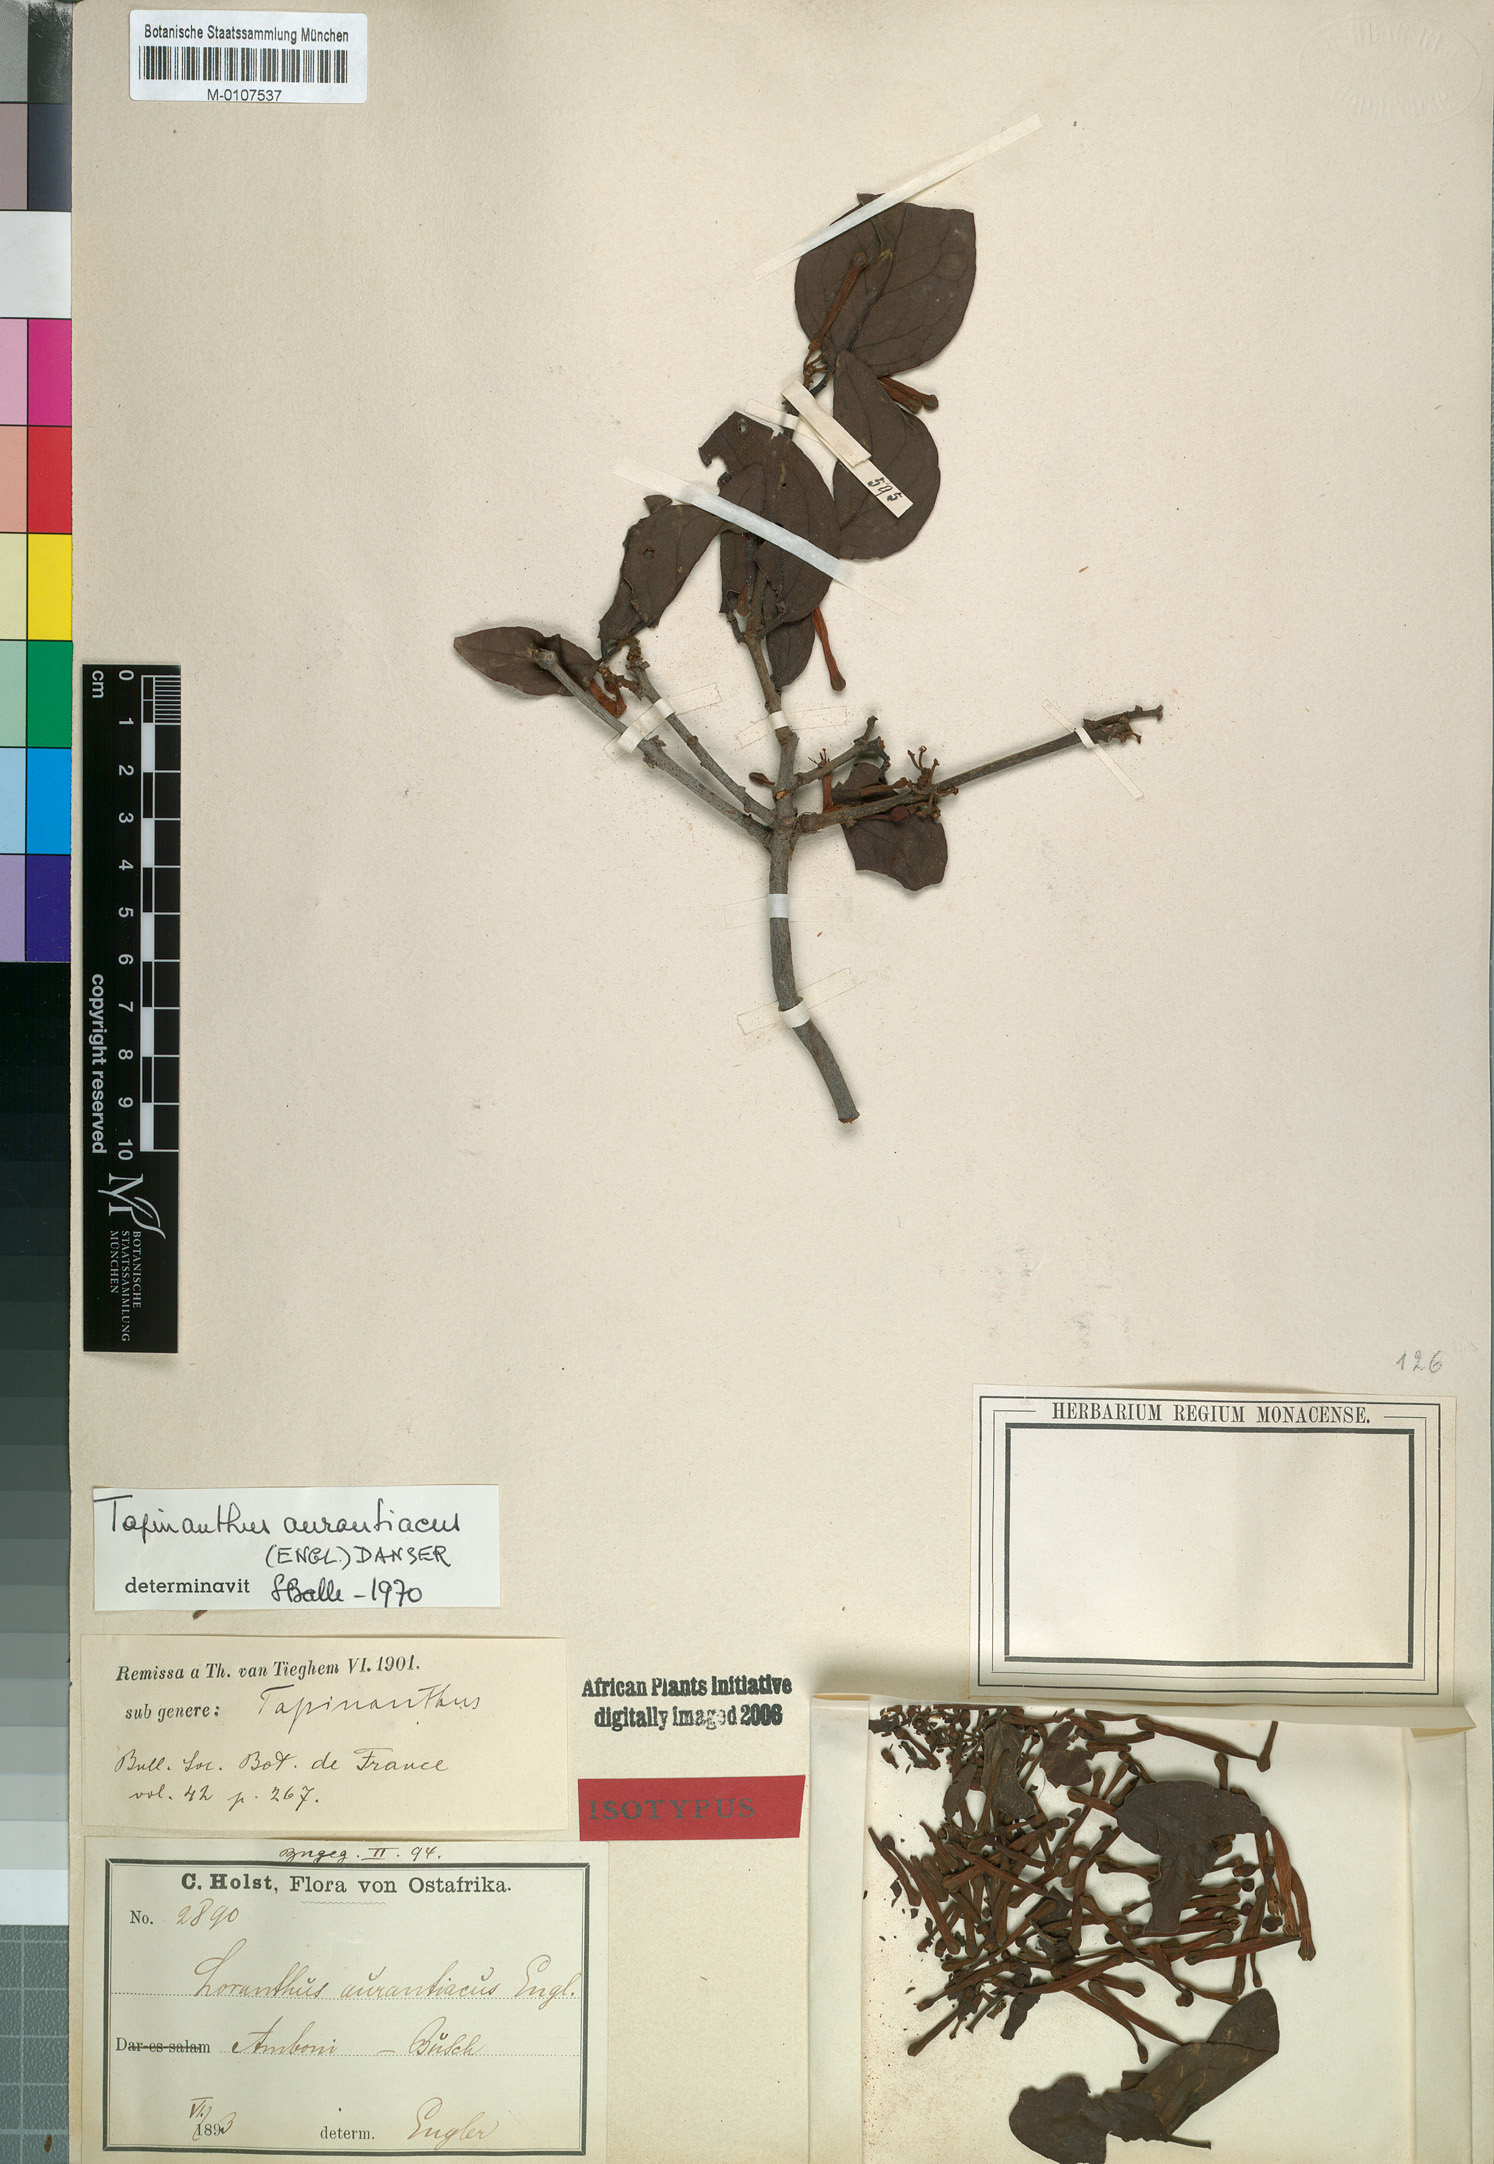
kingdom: Plantae
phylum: Tracheophyta
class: Magnoliopsida
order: Santalales
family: Loranthaceae
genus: Agelanthus
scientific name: Agelanthus heteromorphus
